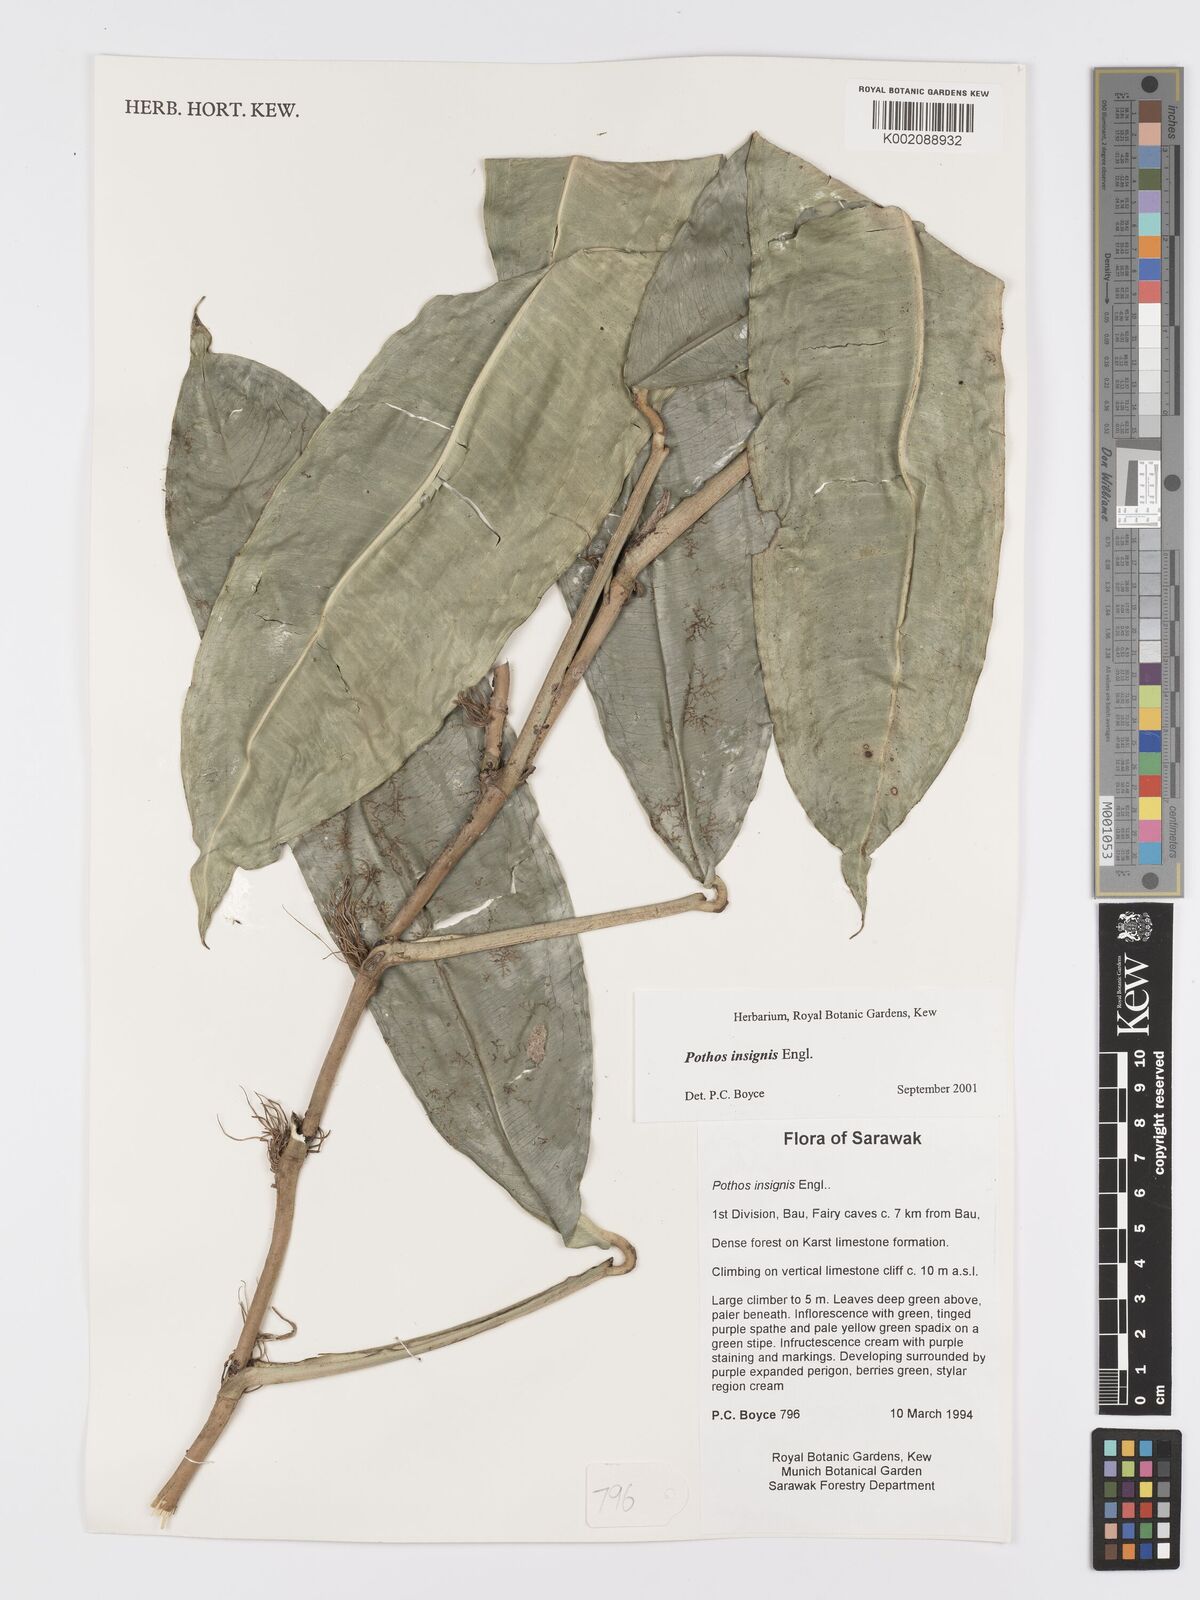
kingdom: Plantae
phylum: Tracheophyta
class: Liliopsida
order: Alismatales
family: Araceae
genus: Pothos
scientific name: Pothos insignis
